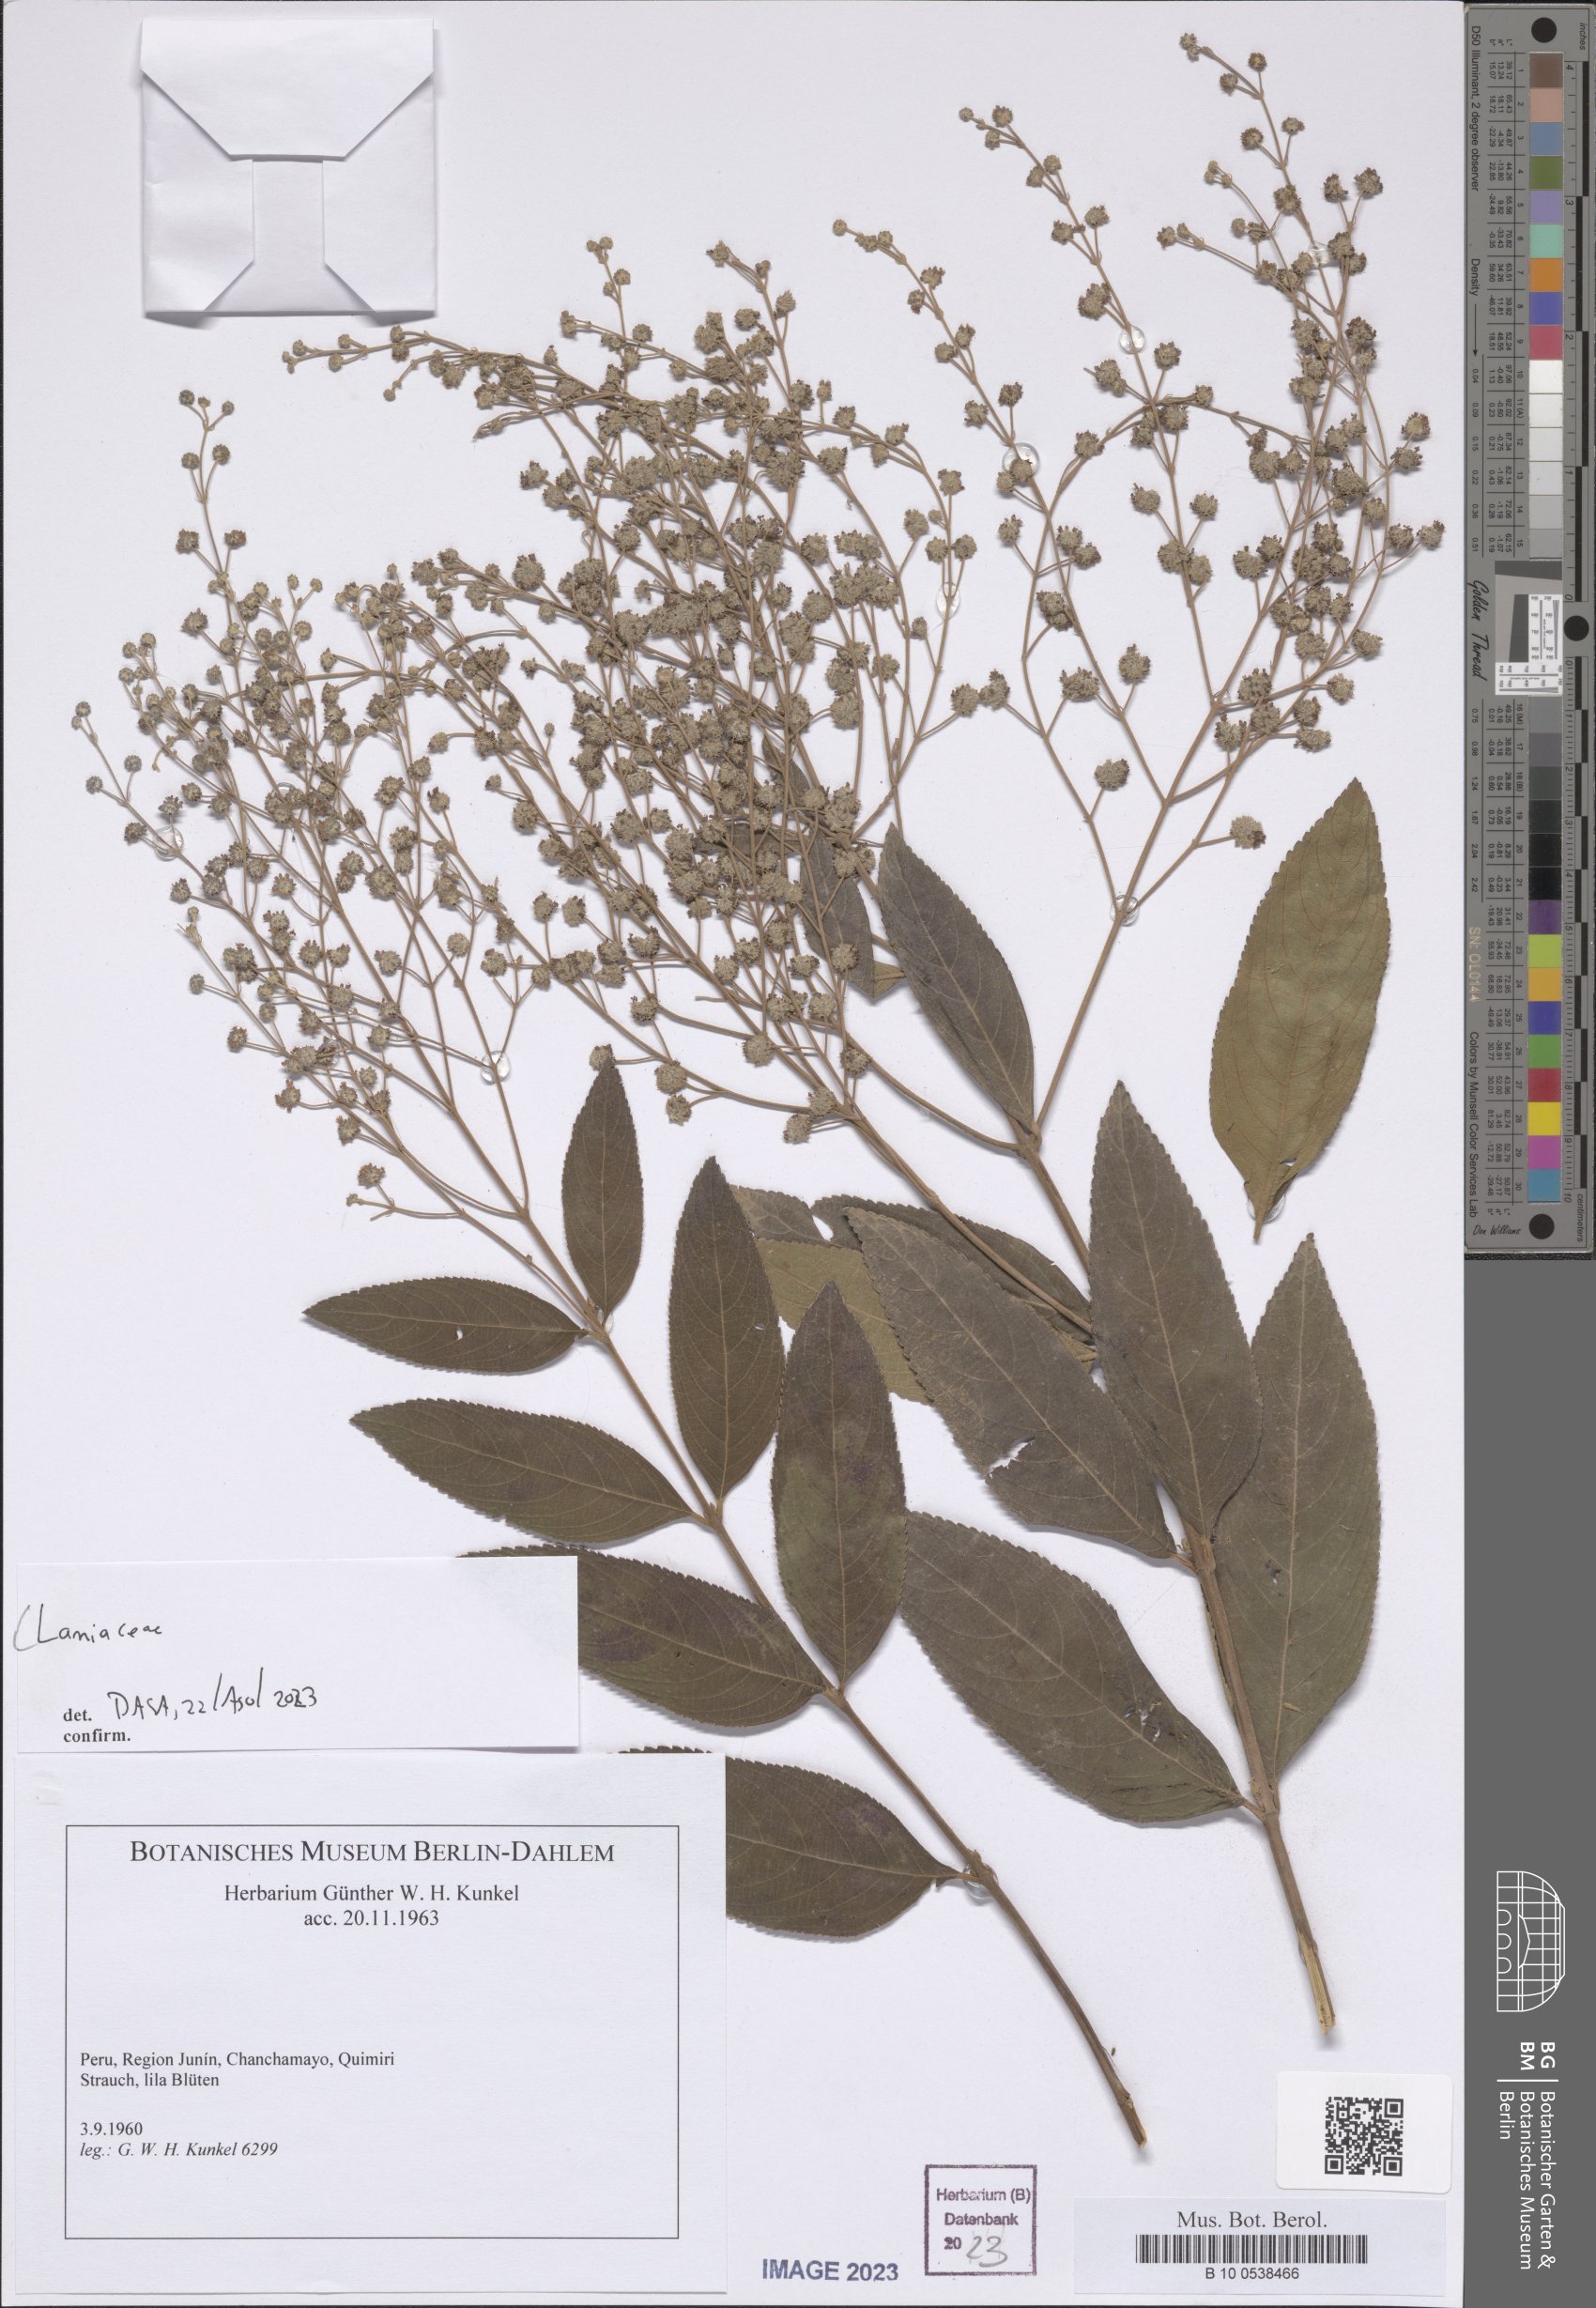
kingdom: Plantae
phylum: Tracheophyta
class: Magnoliopsida
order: Lamiales
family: Lamiaceae
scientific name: Lamiaceae
